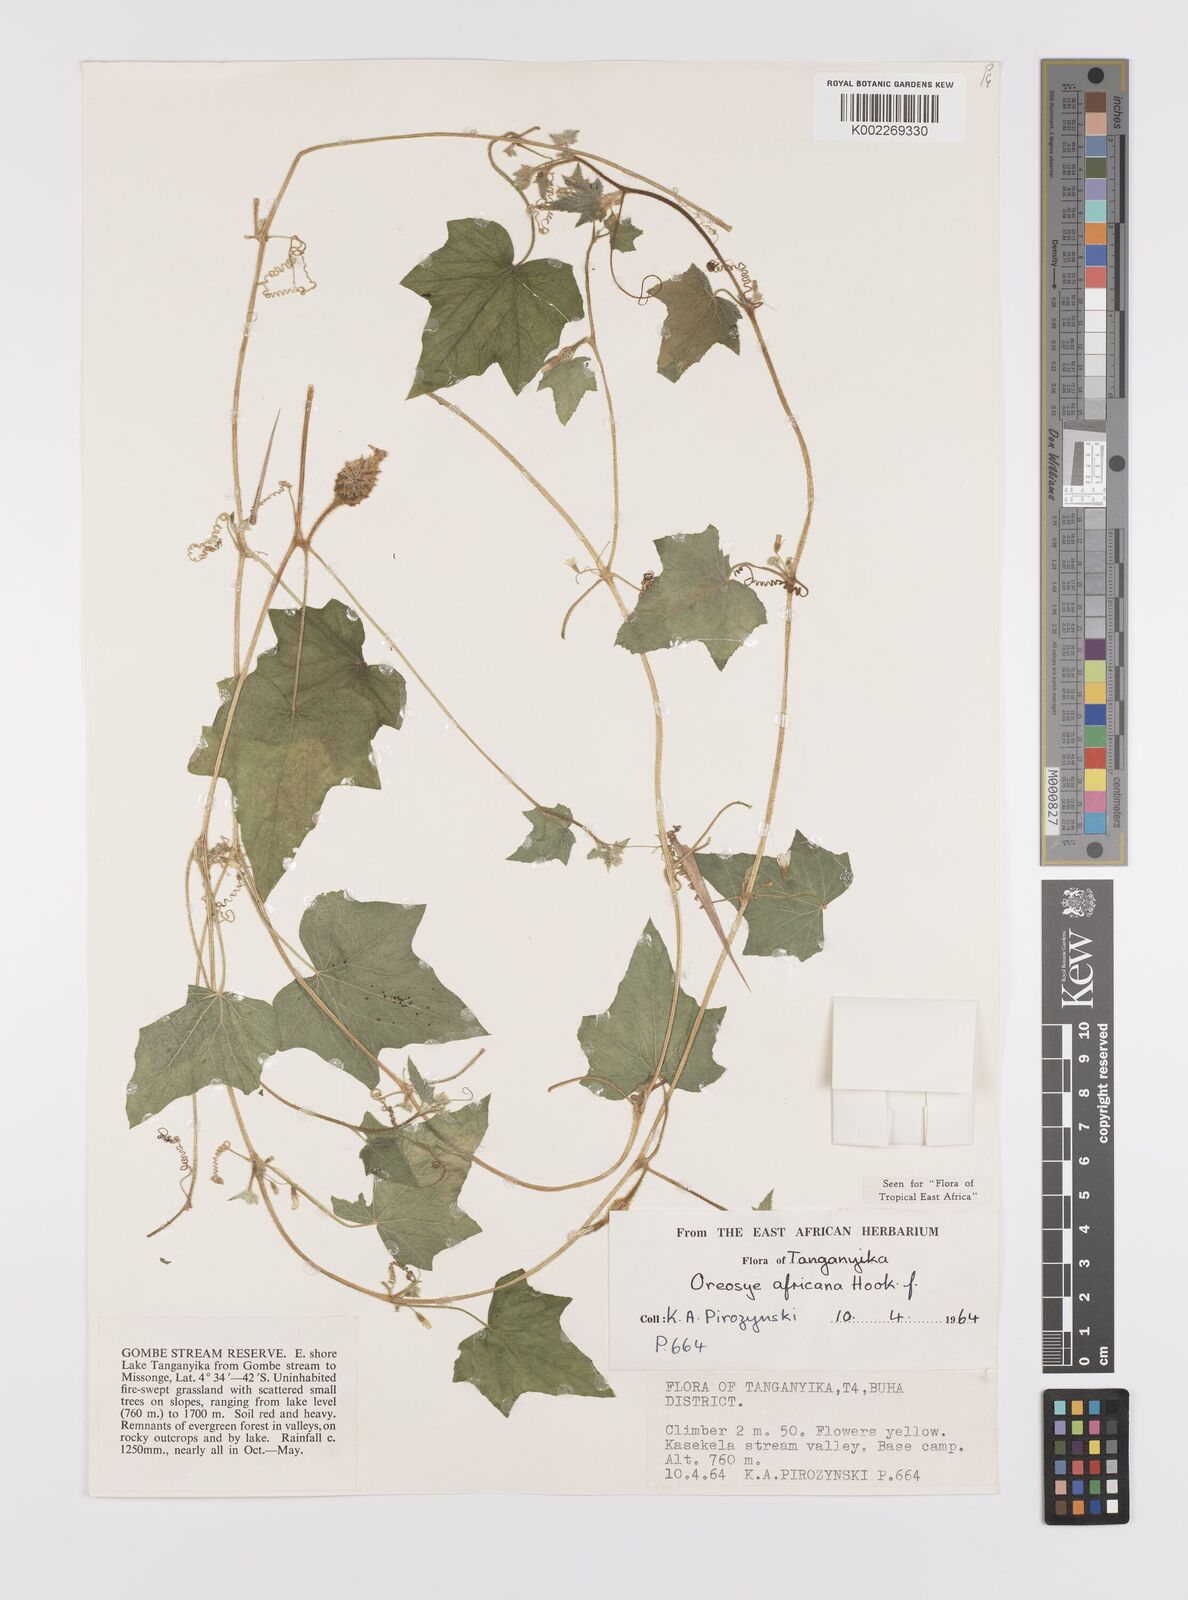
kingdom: Plantae
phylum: Tracheophyta
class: Magnoliopsida
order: Cucurbitales
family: Cucurbitaceae
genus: Cucumis
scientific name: Cucumis oreosyce
